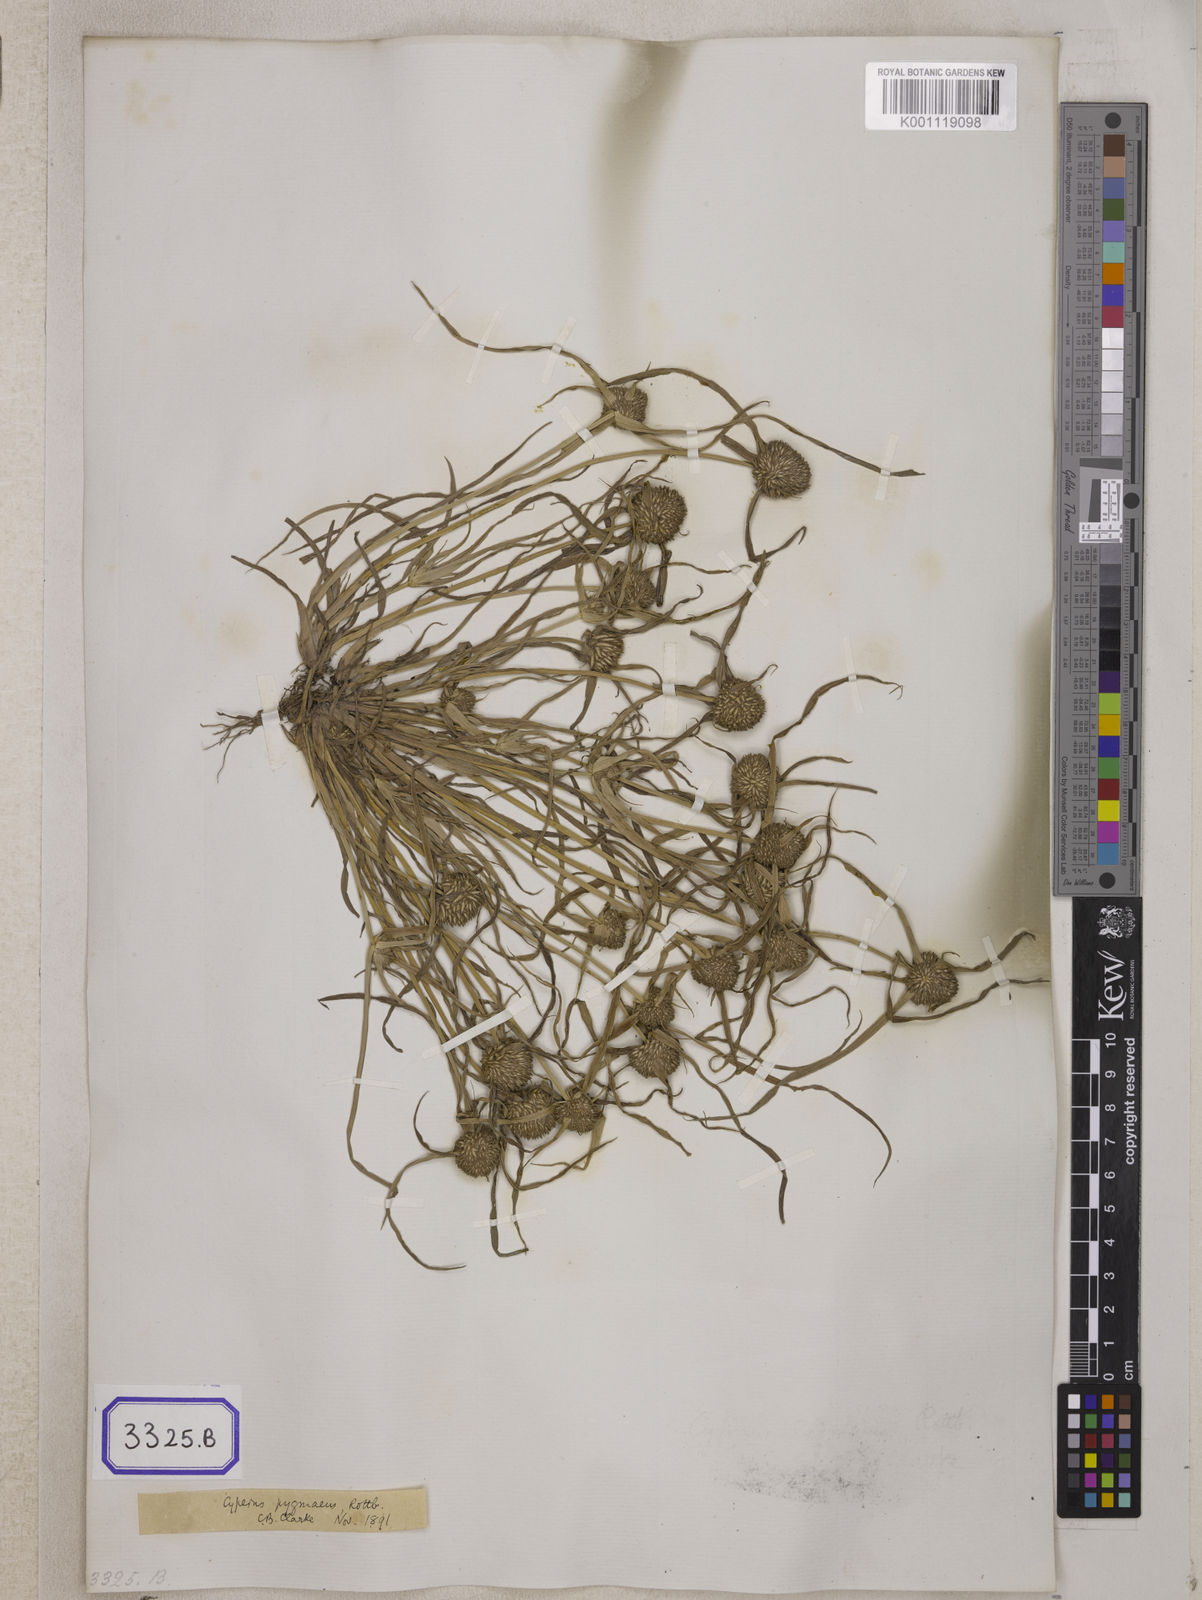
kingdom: Plantae
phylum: Tracheophyta
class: Liliopsida
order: Poales
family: Cyperaceae
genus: Cyperus
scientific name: Cyperus
